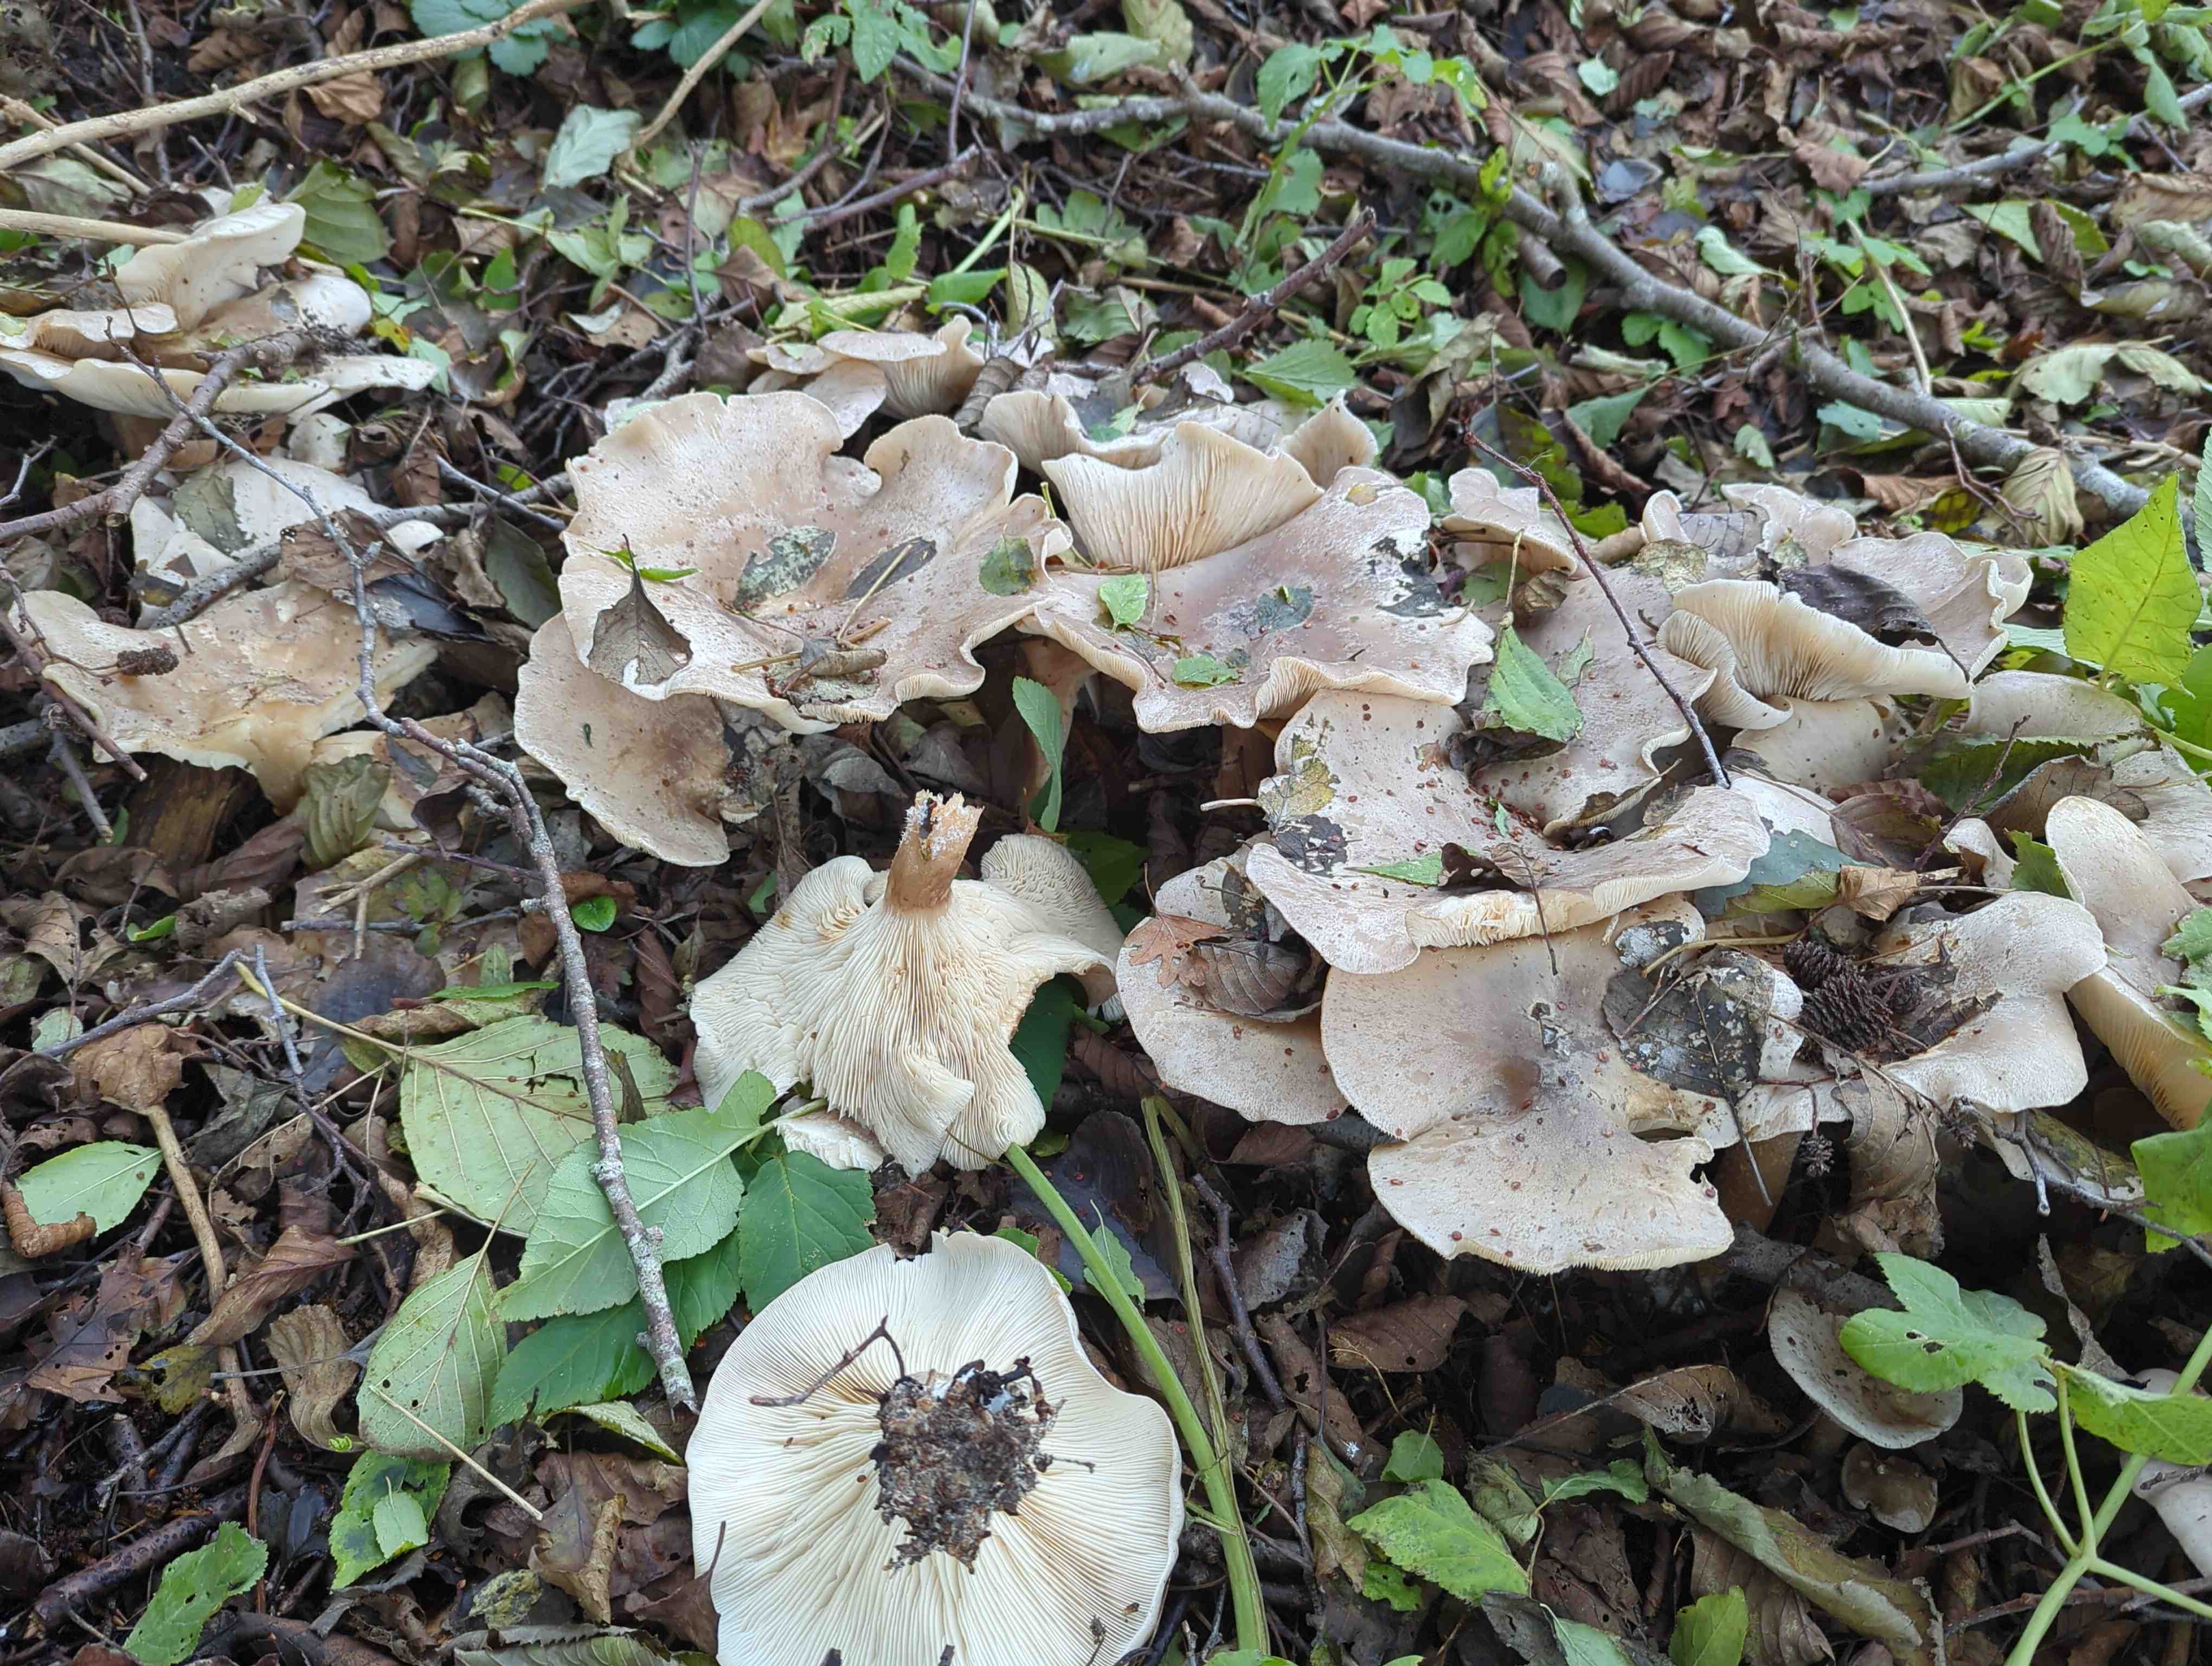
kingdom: Fungi
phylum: Basidiomycota
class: Agaricomycetes
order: Agaricales
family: Tricholomataceae
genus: Clitocybe
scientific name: Clitocybe nebularis
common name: tåge-tragthat
